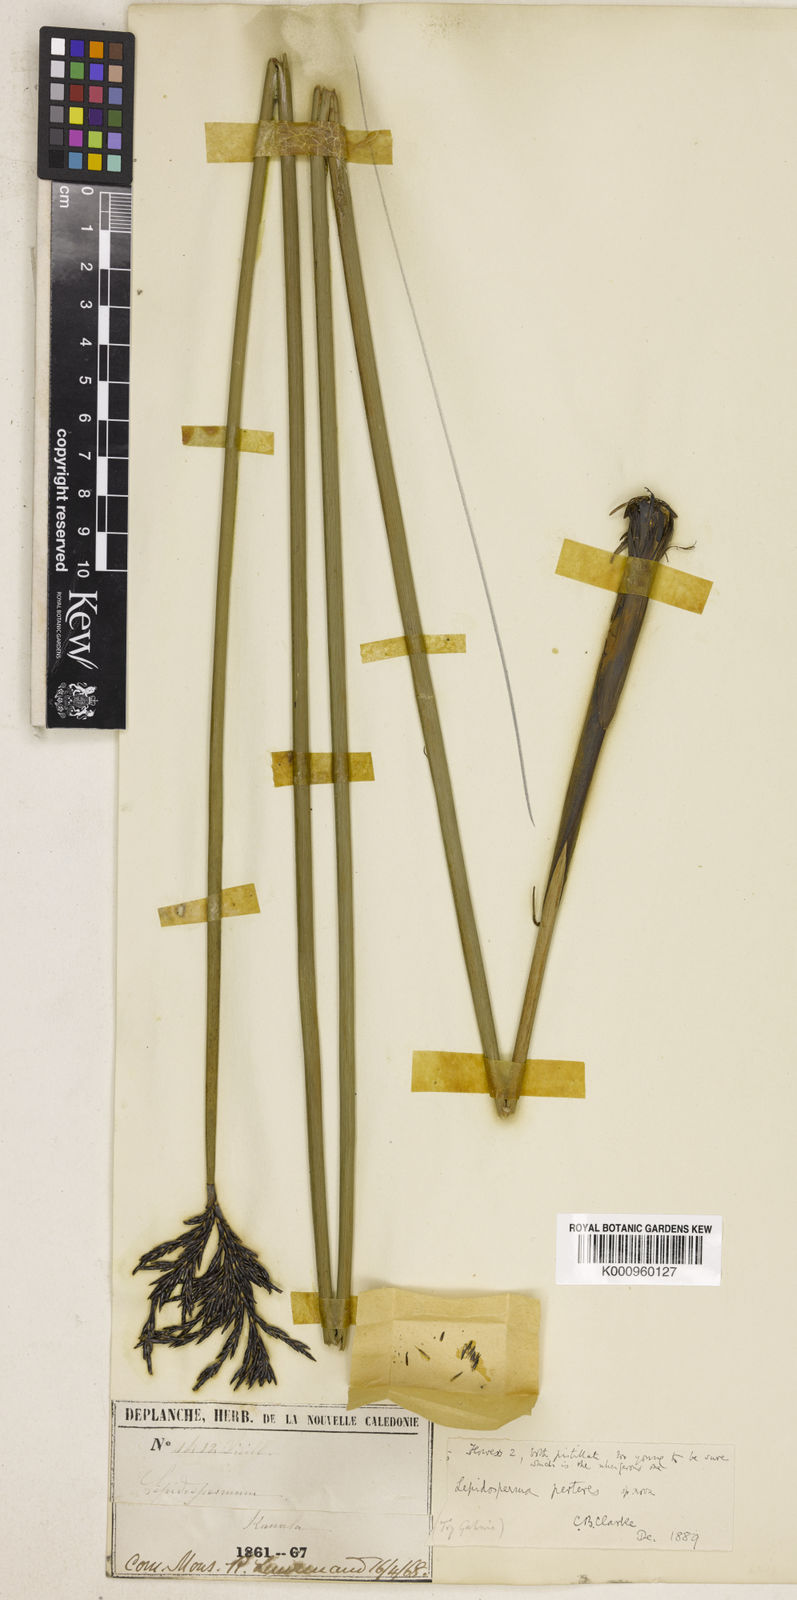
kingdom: Plantae
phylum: Tracheophyta
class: Liliopsida
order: Poales
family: Cyperaceae
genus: Lepidosperma
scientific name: Lepidosperma perteres
